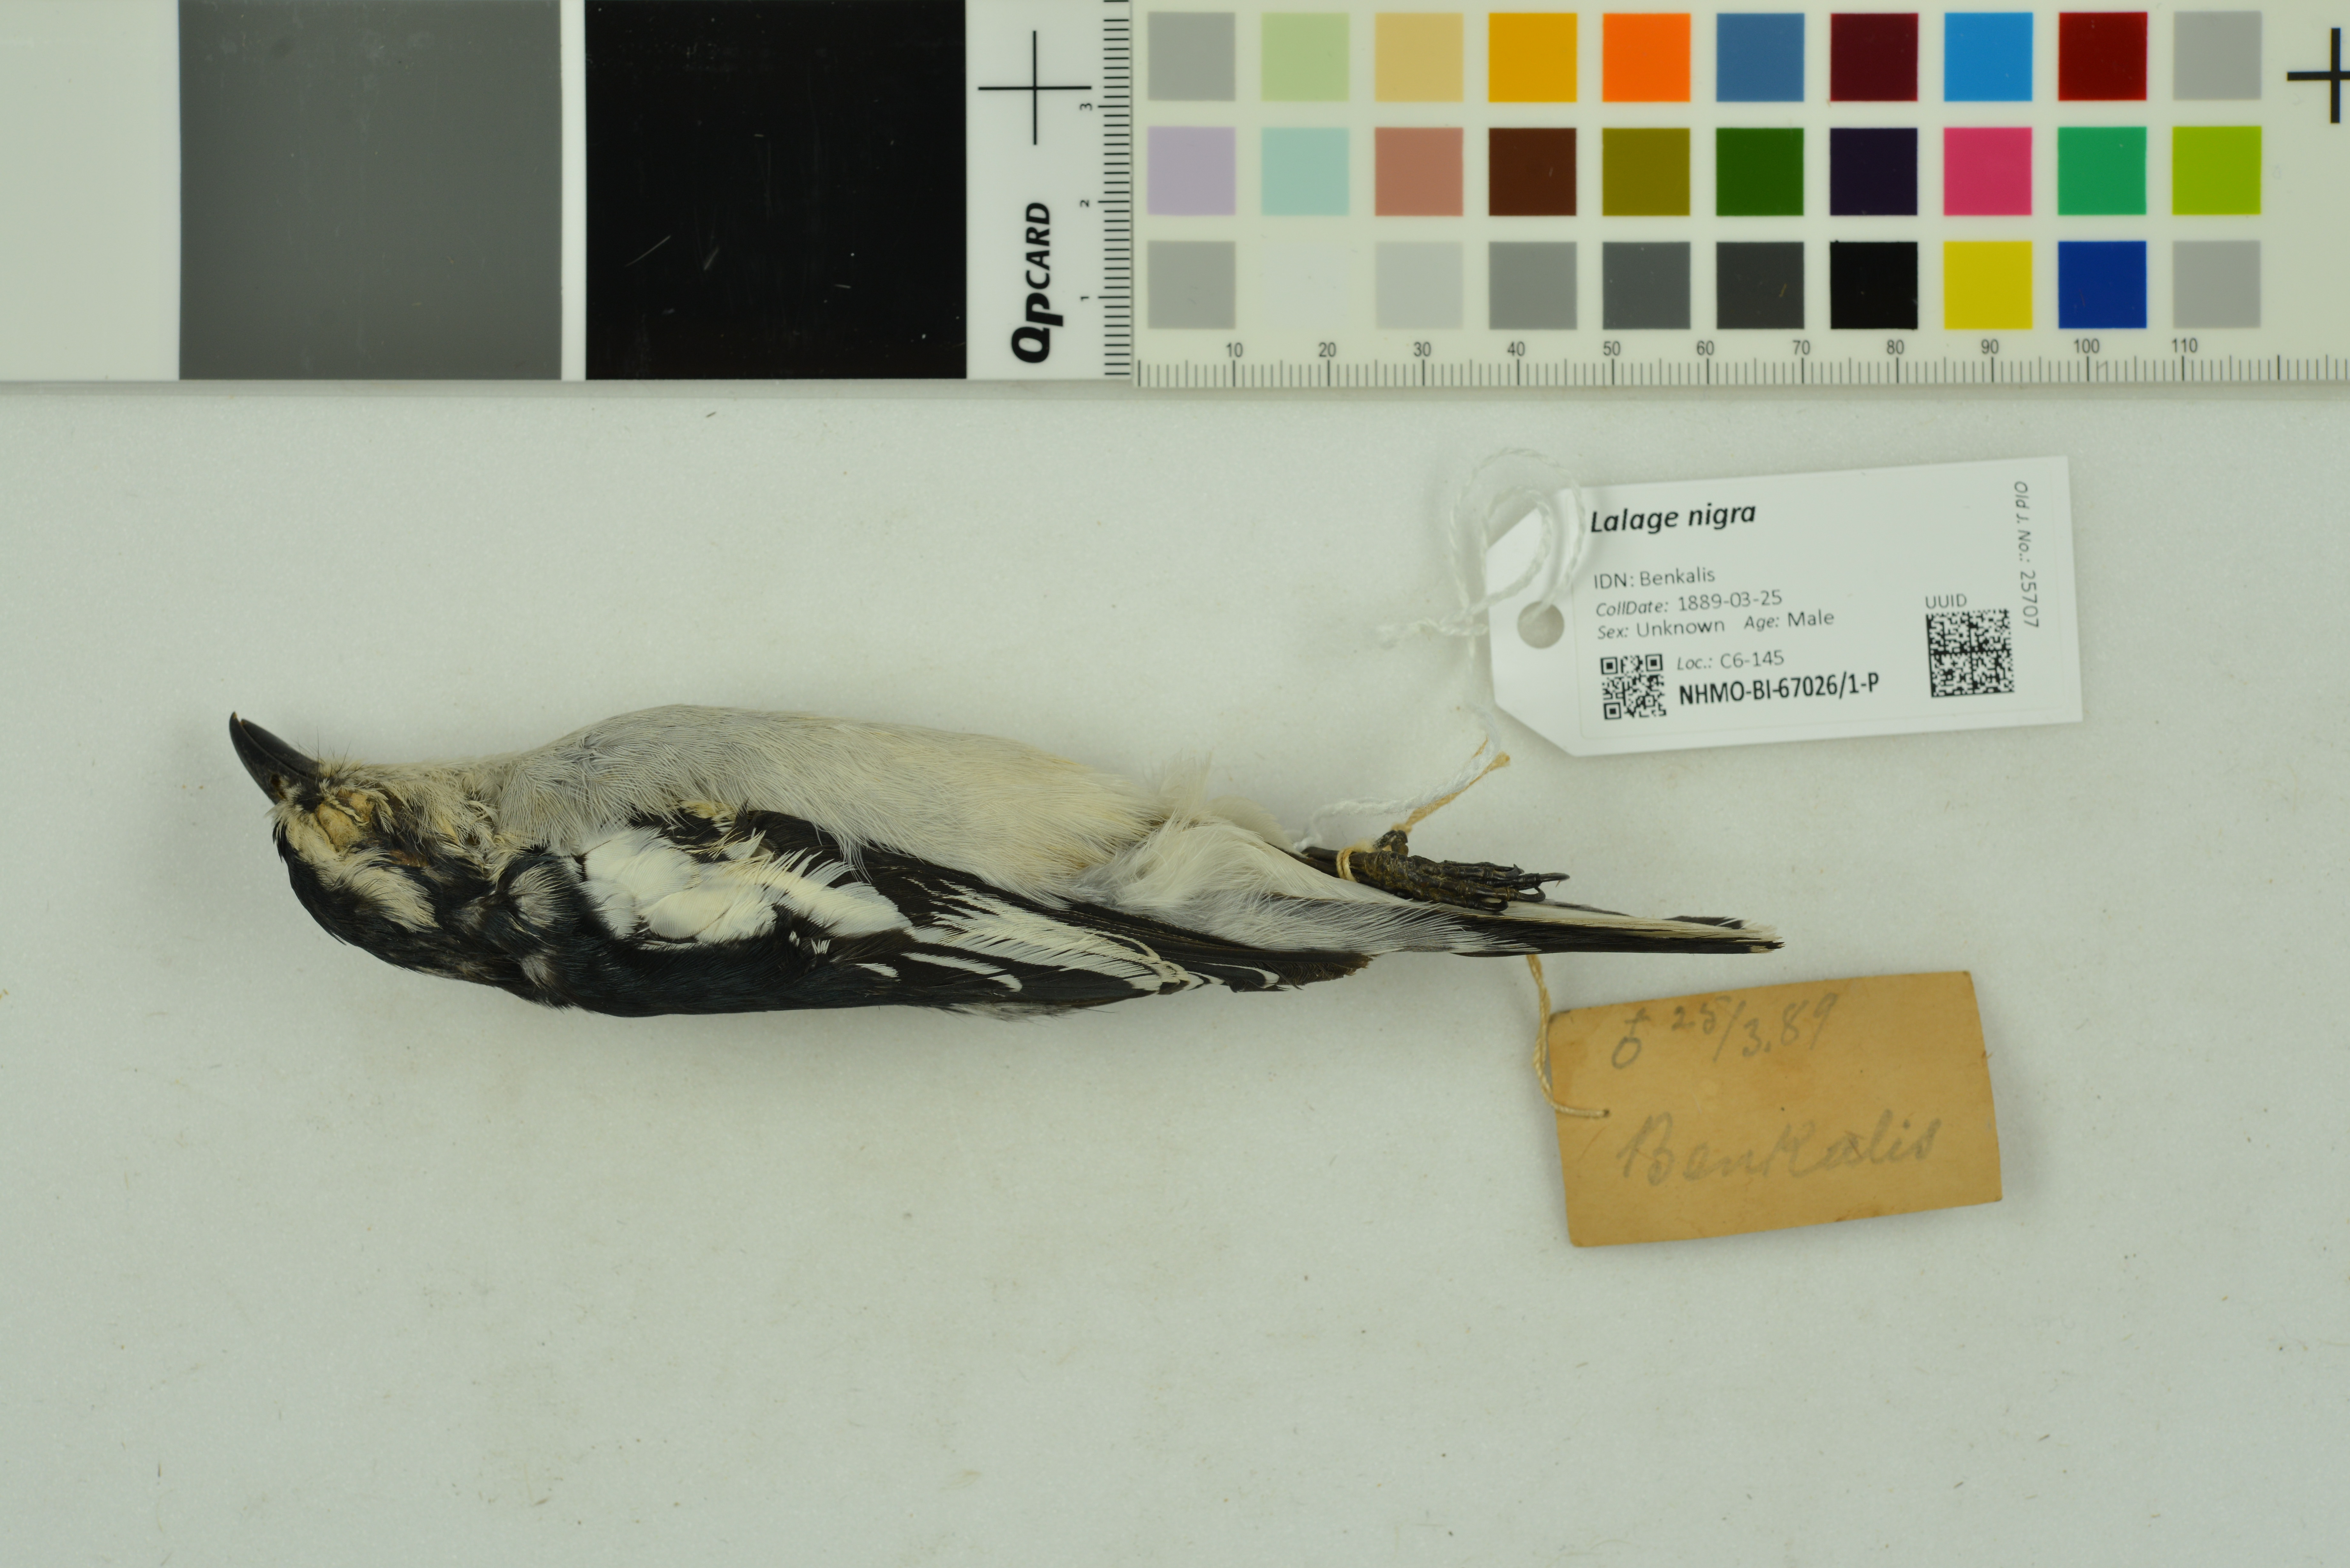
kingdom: Animalia
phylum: Chordata
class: Aves
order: Passeriformes
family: Campephagidae
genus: Lalage
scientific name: Lalage nigra
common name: Pied triller
